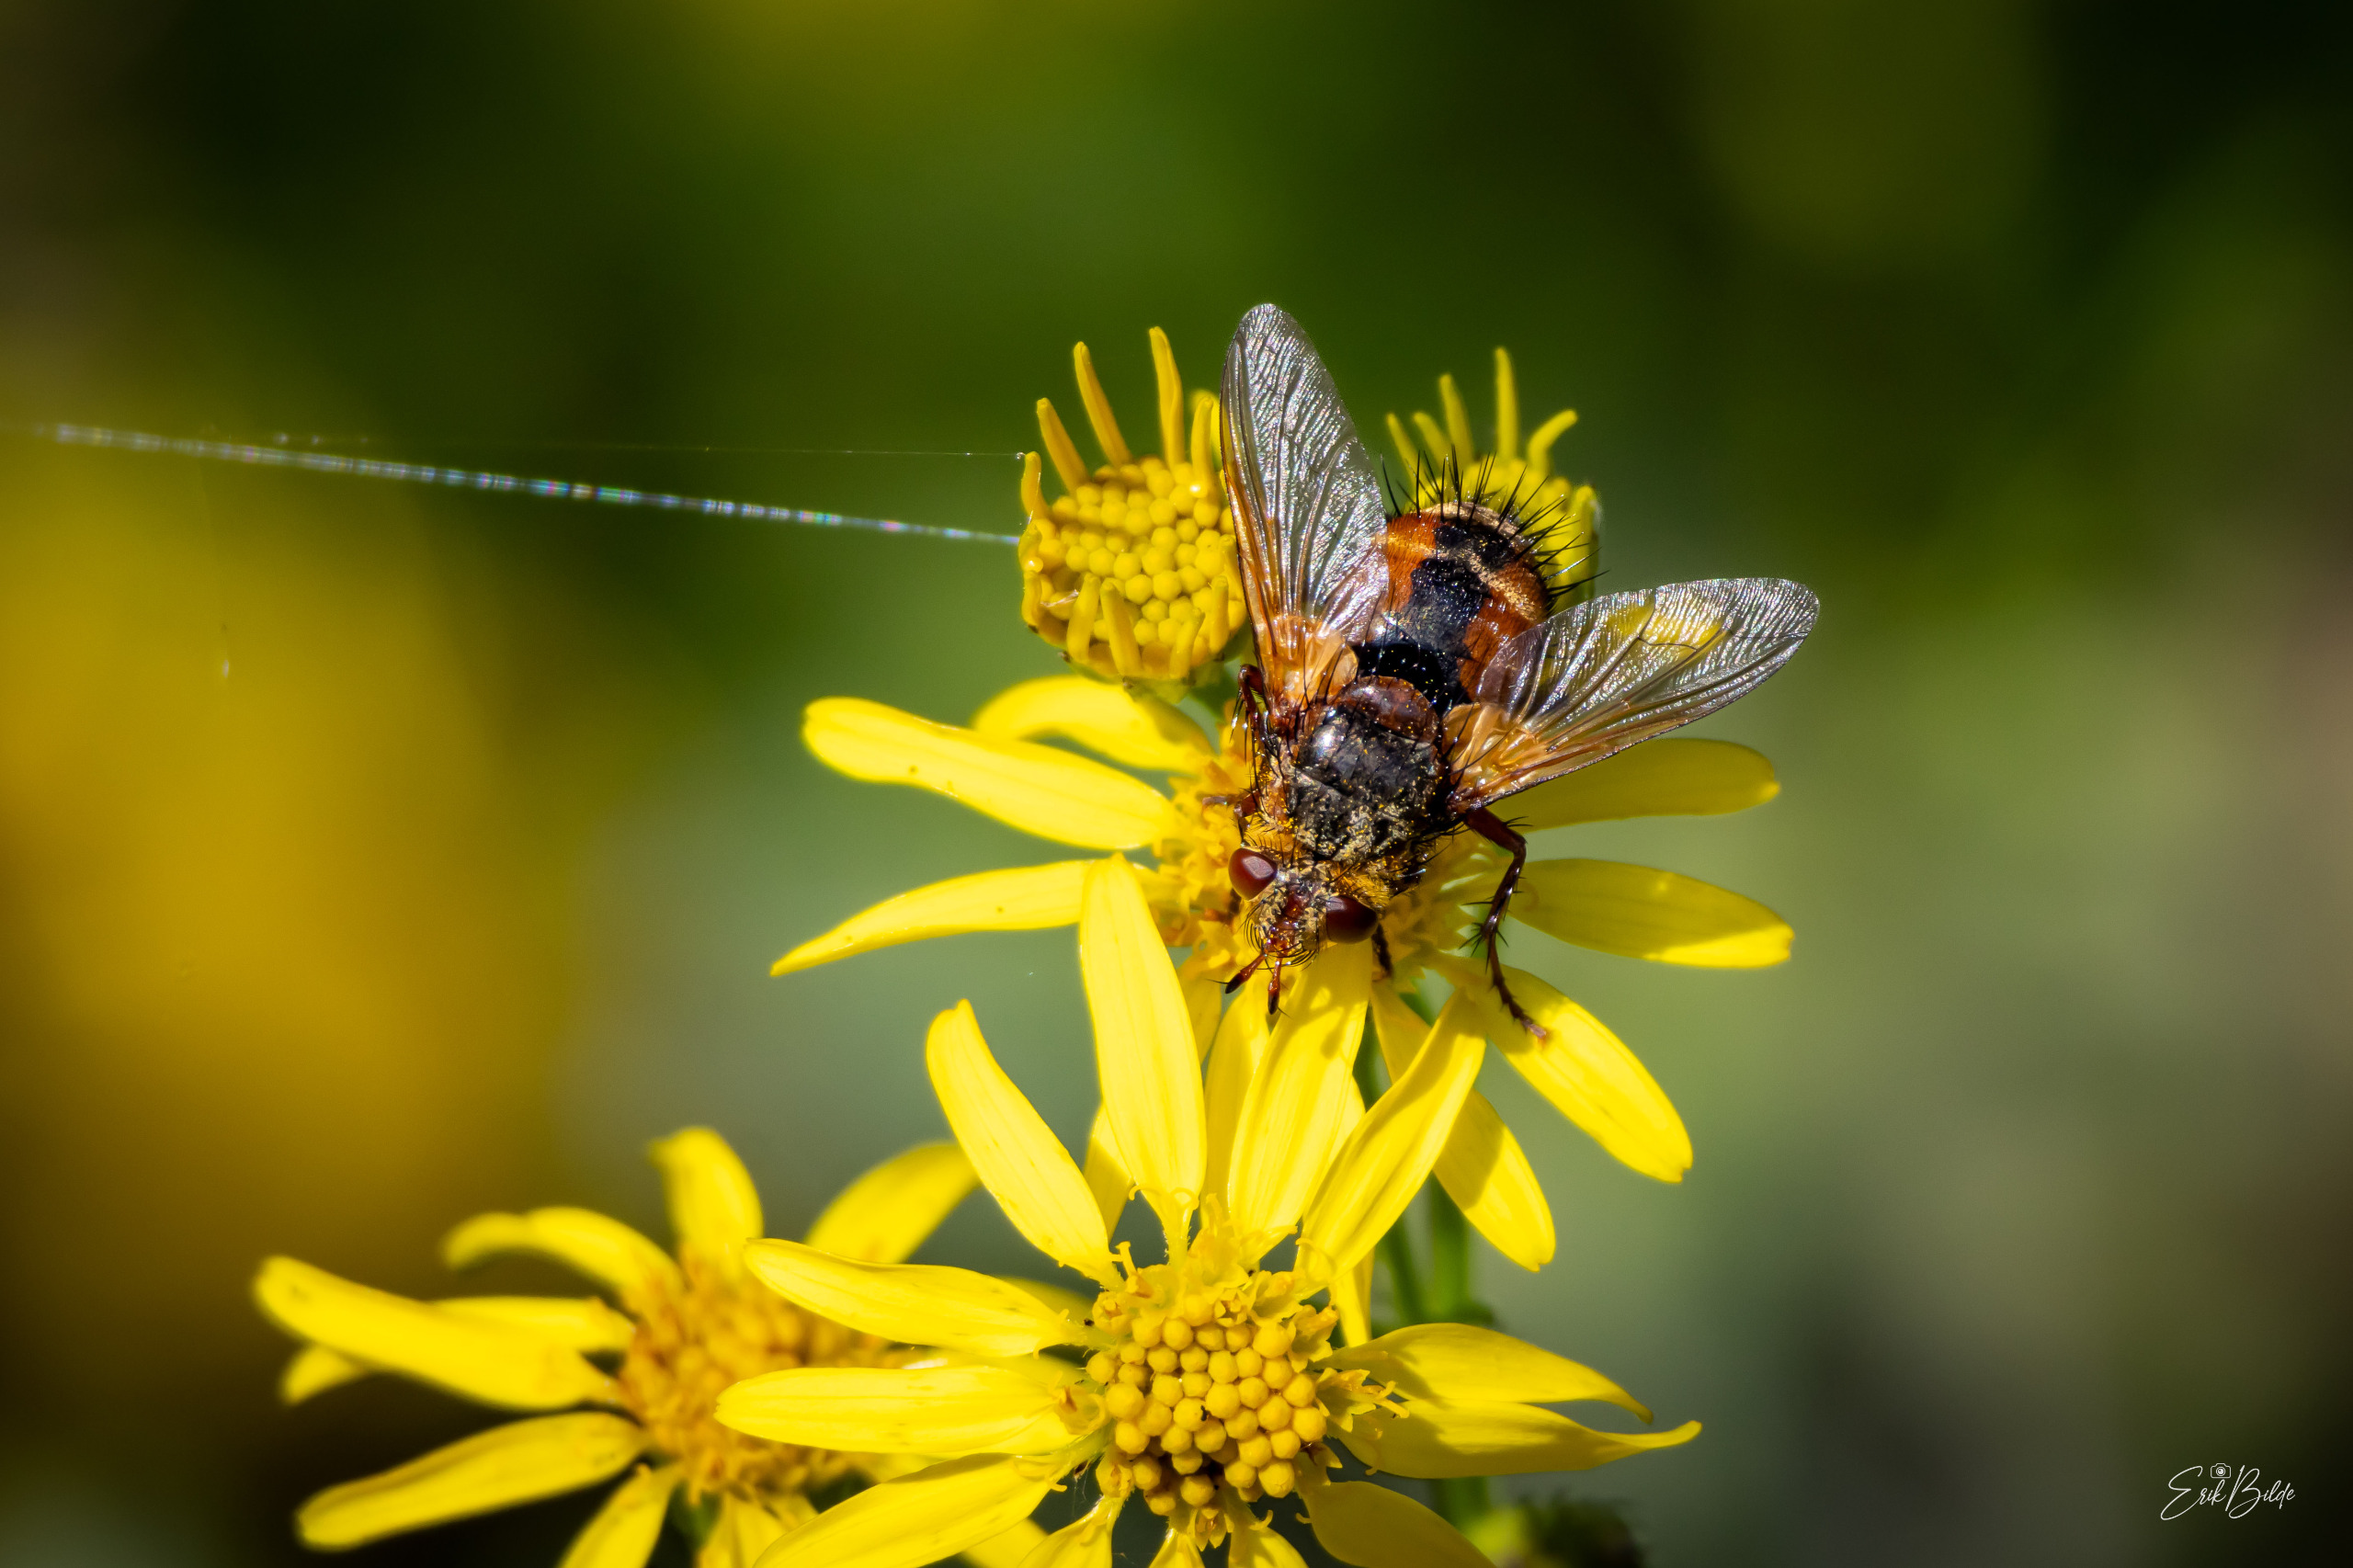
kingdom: Animalia
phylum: Arthropoda
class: Insecta
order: Diptera
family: Tachinidae
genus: Tachina
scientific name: Tachina fera
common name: Mellemfluen oskar
